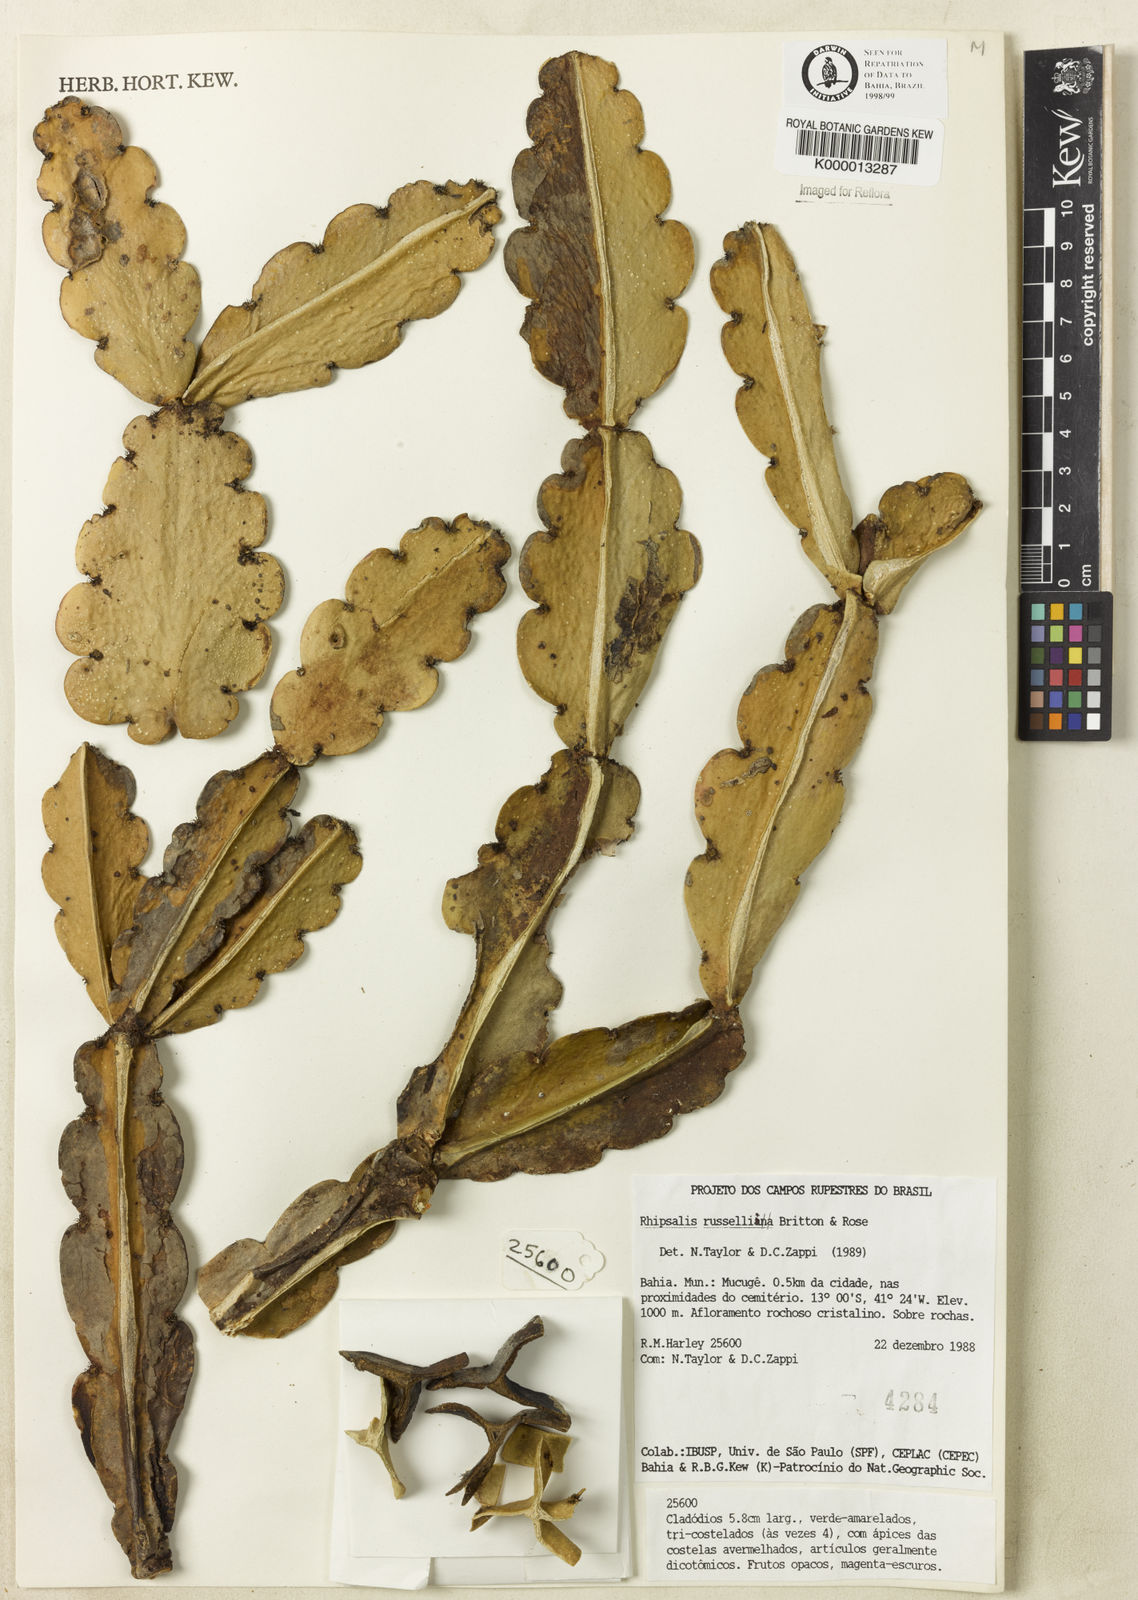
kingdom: Plantae
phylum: Tracheophyta
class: Magnoliopsida
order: Caryophyllales
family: Cactaceae
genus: Rhipsalis
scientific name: Rhipsalis russellii
